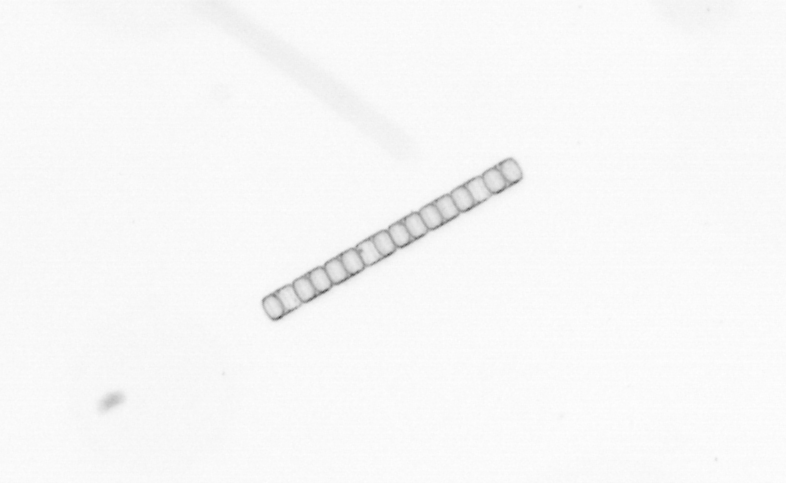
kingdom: Chromista
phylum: Ochrophyta
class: Bacillariophyceae
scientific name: Bacillariophyceae
